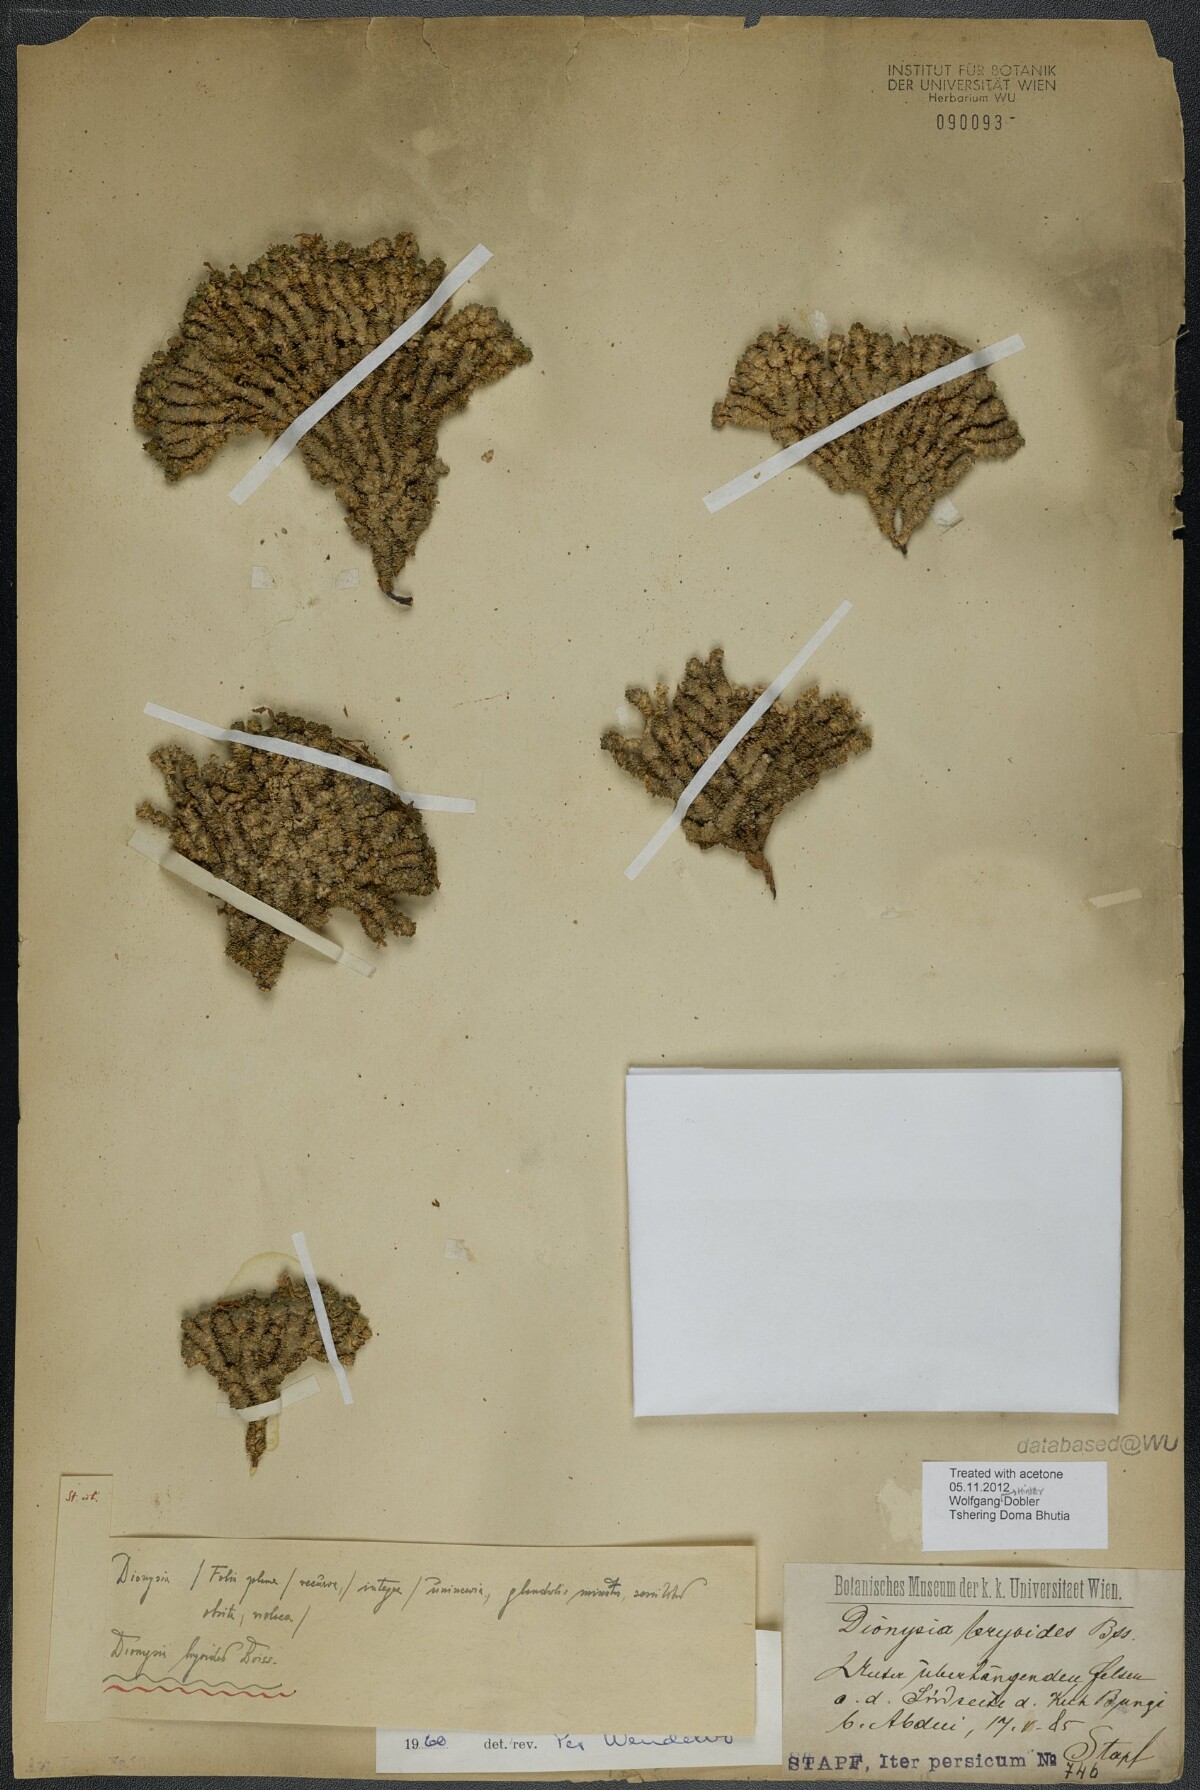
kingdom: Plantae
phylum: Tracheophyta
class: Magnoliopsida
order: Ericales
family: Primulaceae
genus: Dionysia
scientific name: Dionysia bryoides
